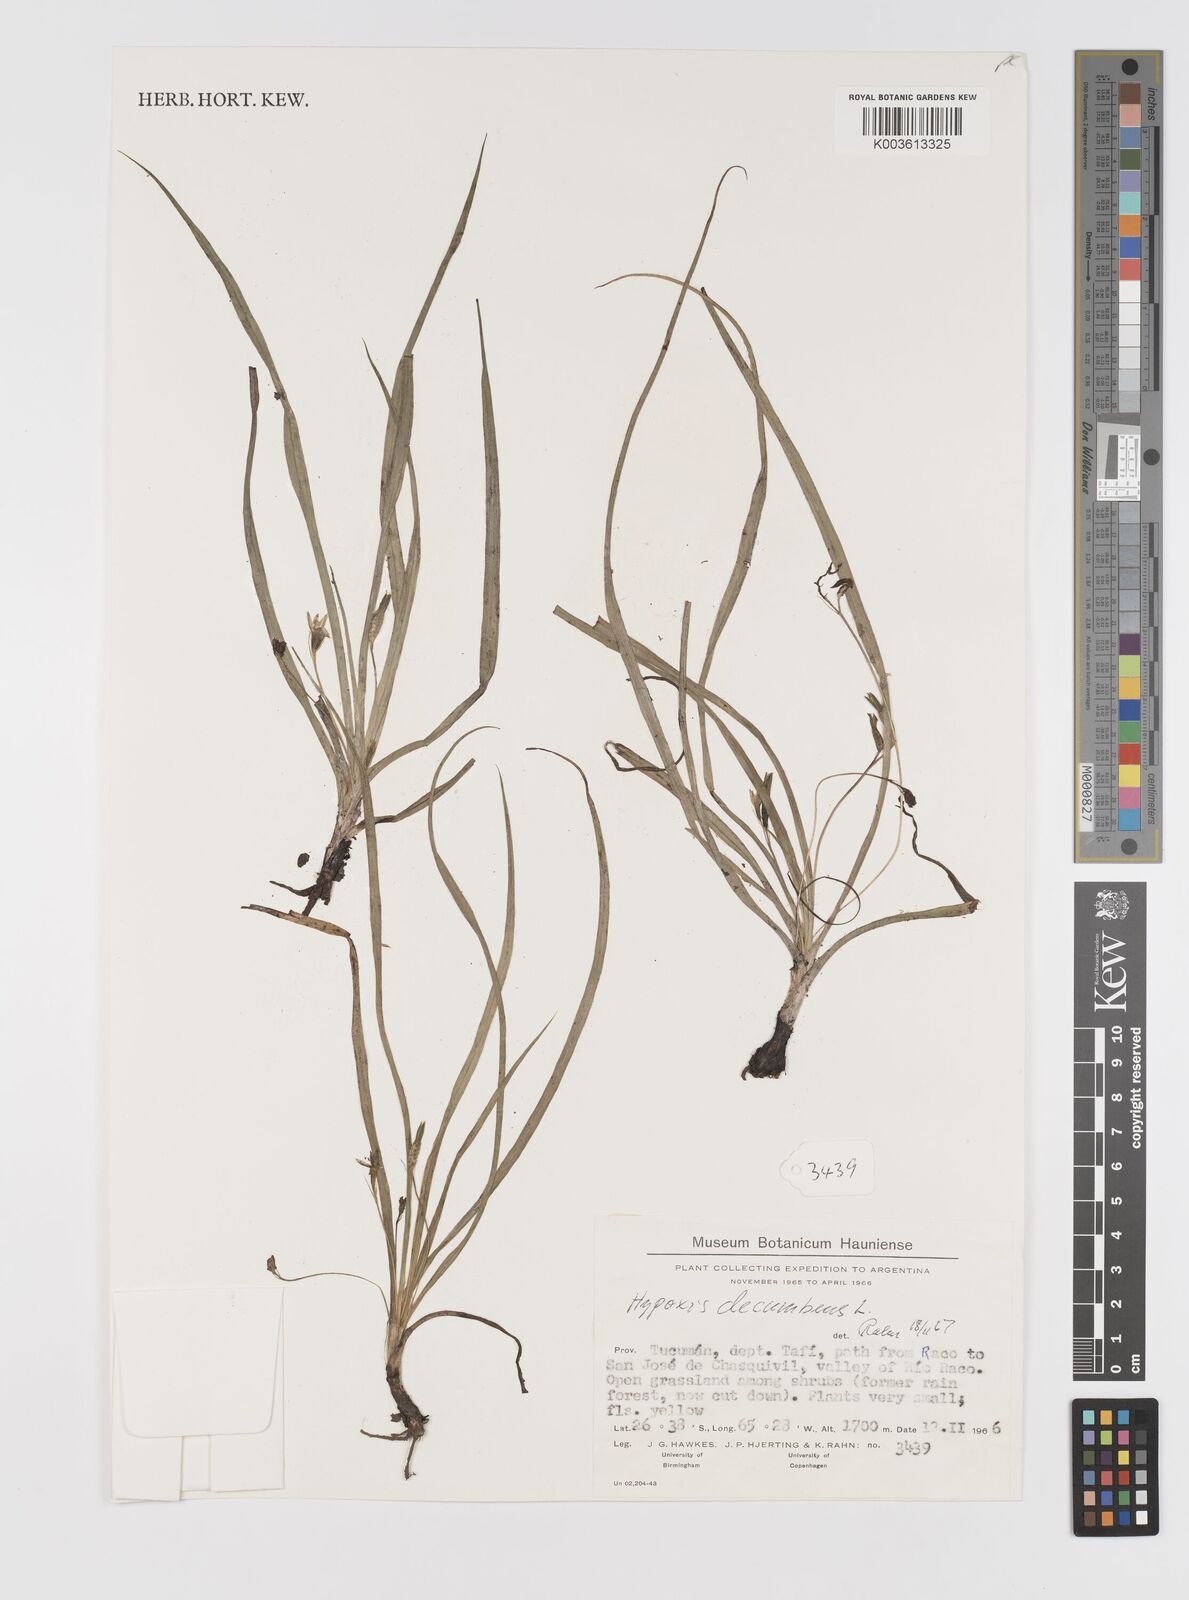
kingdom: Plantae
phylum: Tracheophyta
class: Liliopsida
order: Asparagales
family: Hypoxidaceae
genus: Hypoxis
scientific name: Hypoxis decumbens
